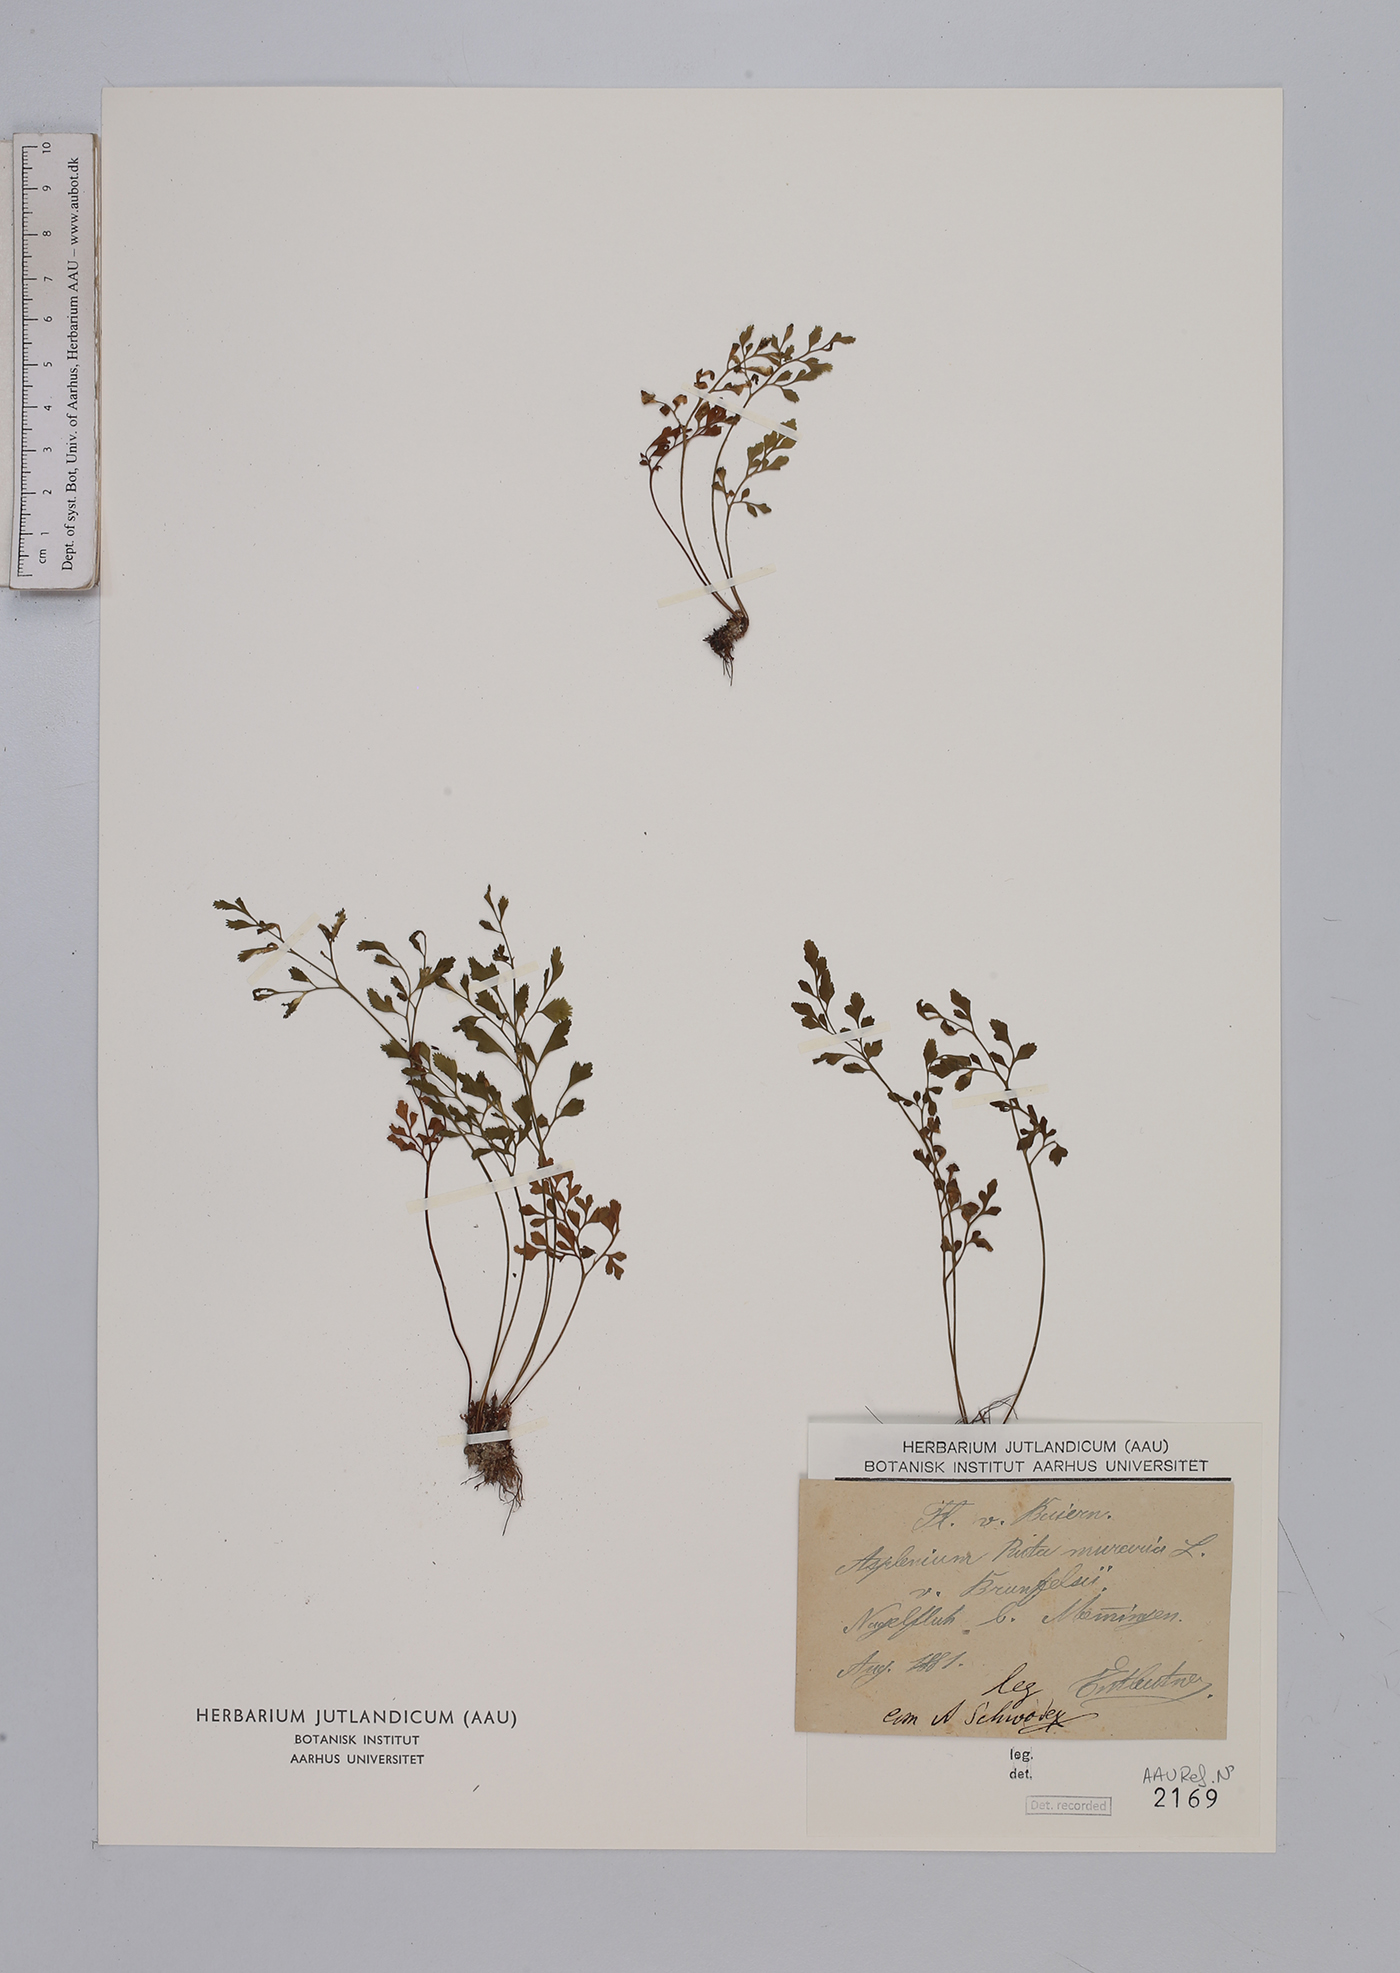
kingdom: Plantae
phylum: Tracheophyta
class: Polypodiopsida
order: Polypodiales
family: Aspleniaceae
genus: Asplenium
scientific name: Asplenium ruta-muraria
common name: Wall-rue
